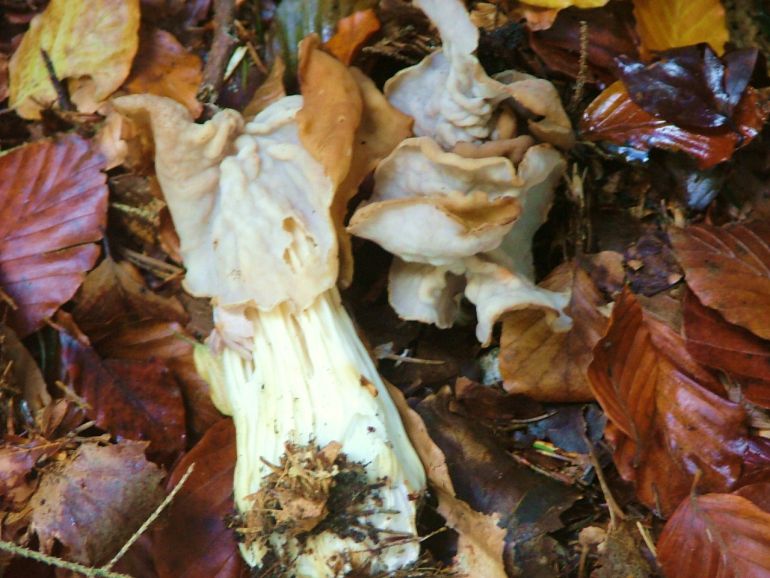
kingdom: Fungi
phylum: Ascomycota
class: Pezizomycetes
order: Pezizales
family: Helvellaceae
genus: Helvella
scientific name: Helvella crispa
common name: kruset foldhat
